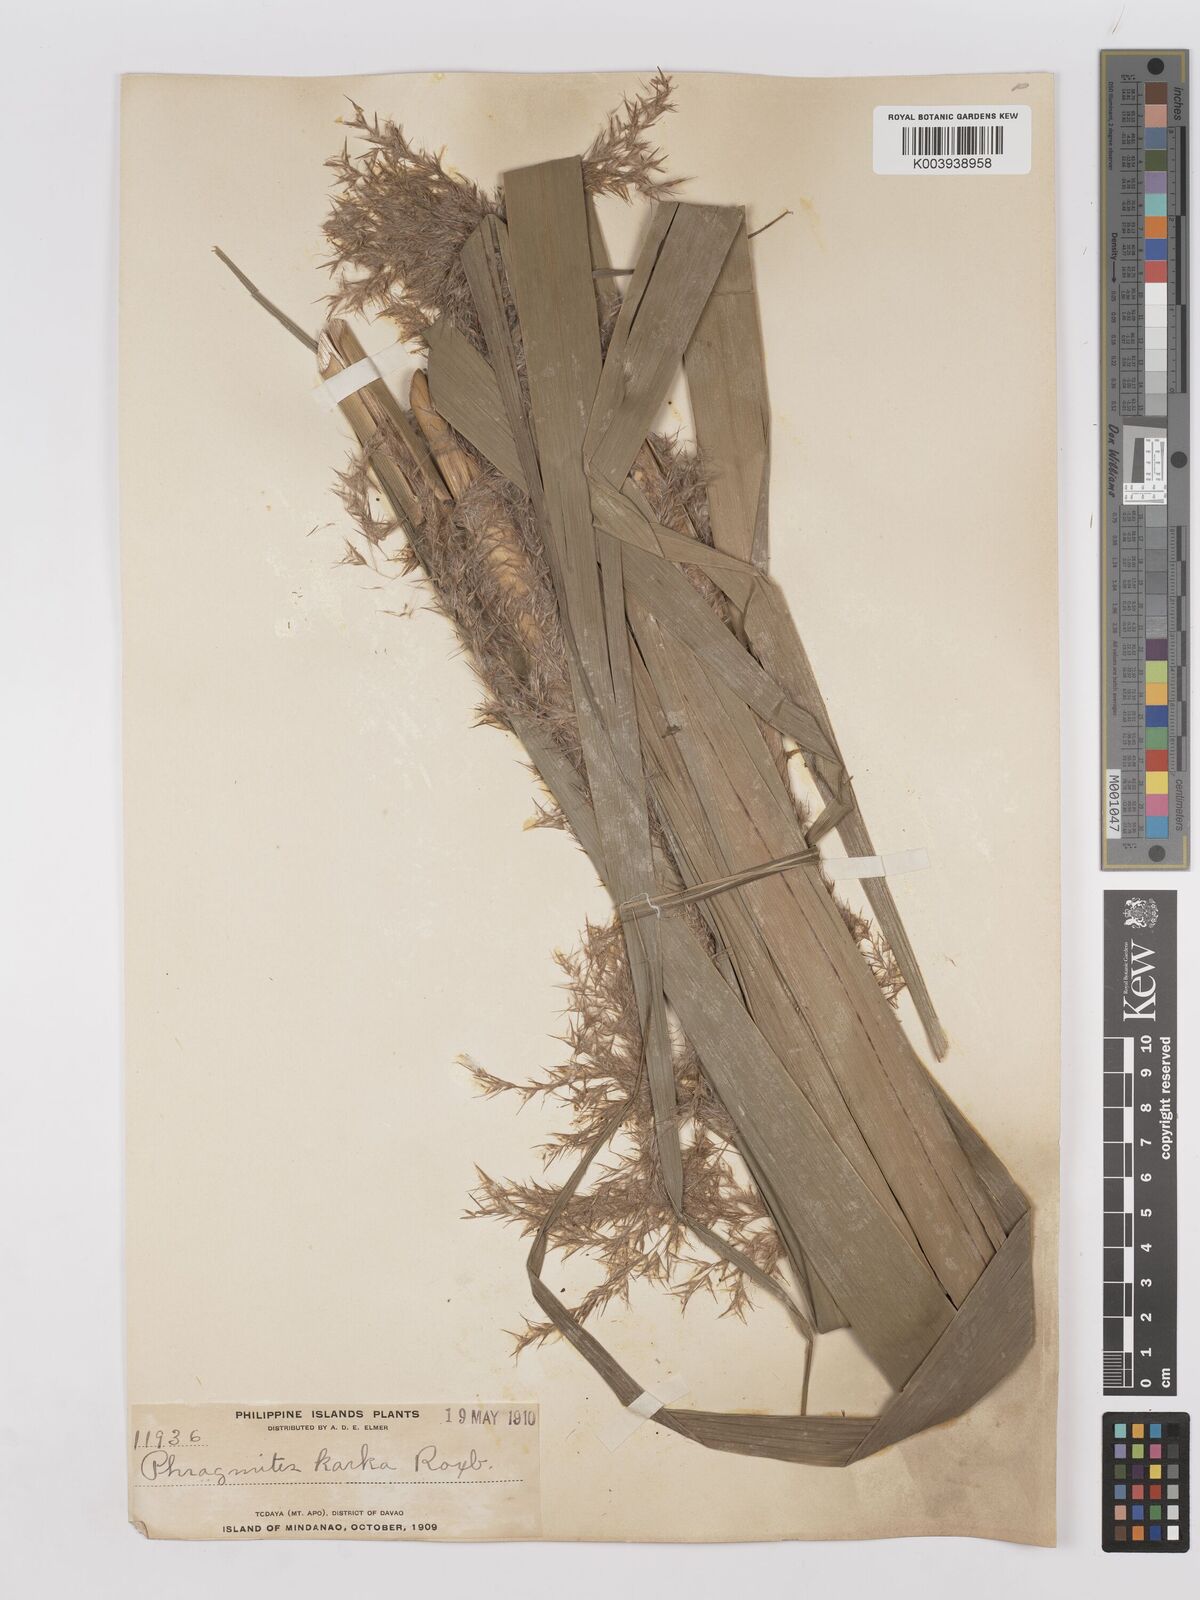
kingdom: Plantae
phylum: Tracheophyta
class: Liliopsida
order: Poales
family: Poaceae
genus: Phragmites
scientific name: Phragmites karka
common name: Tropical reed
